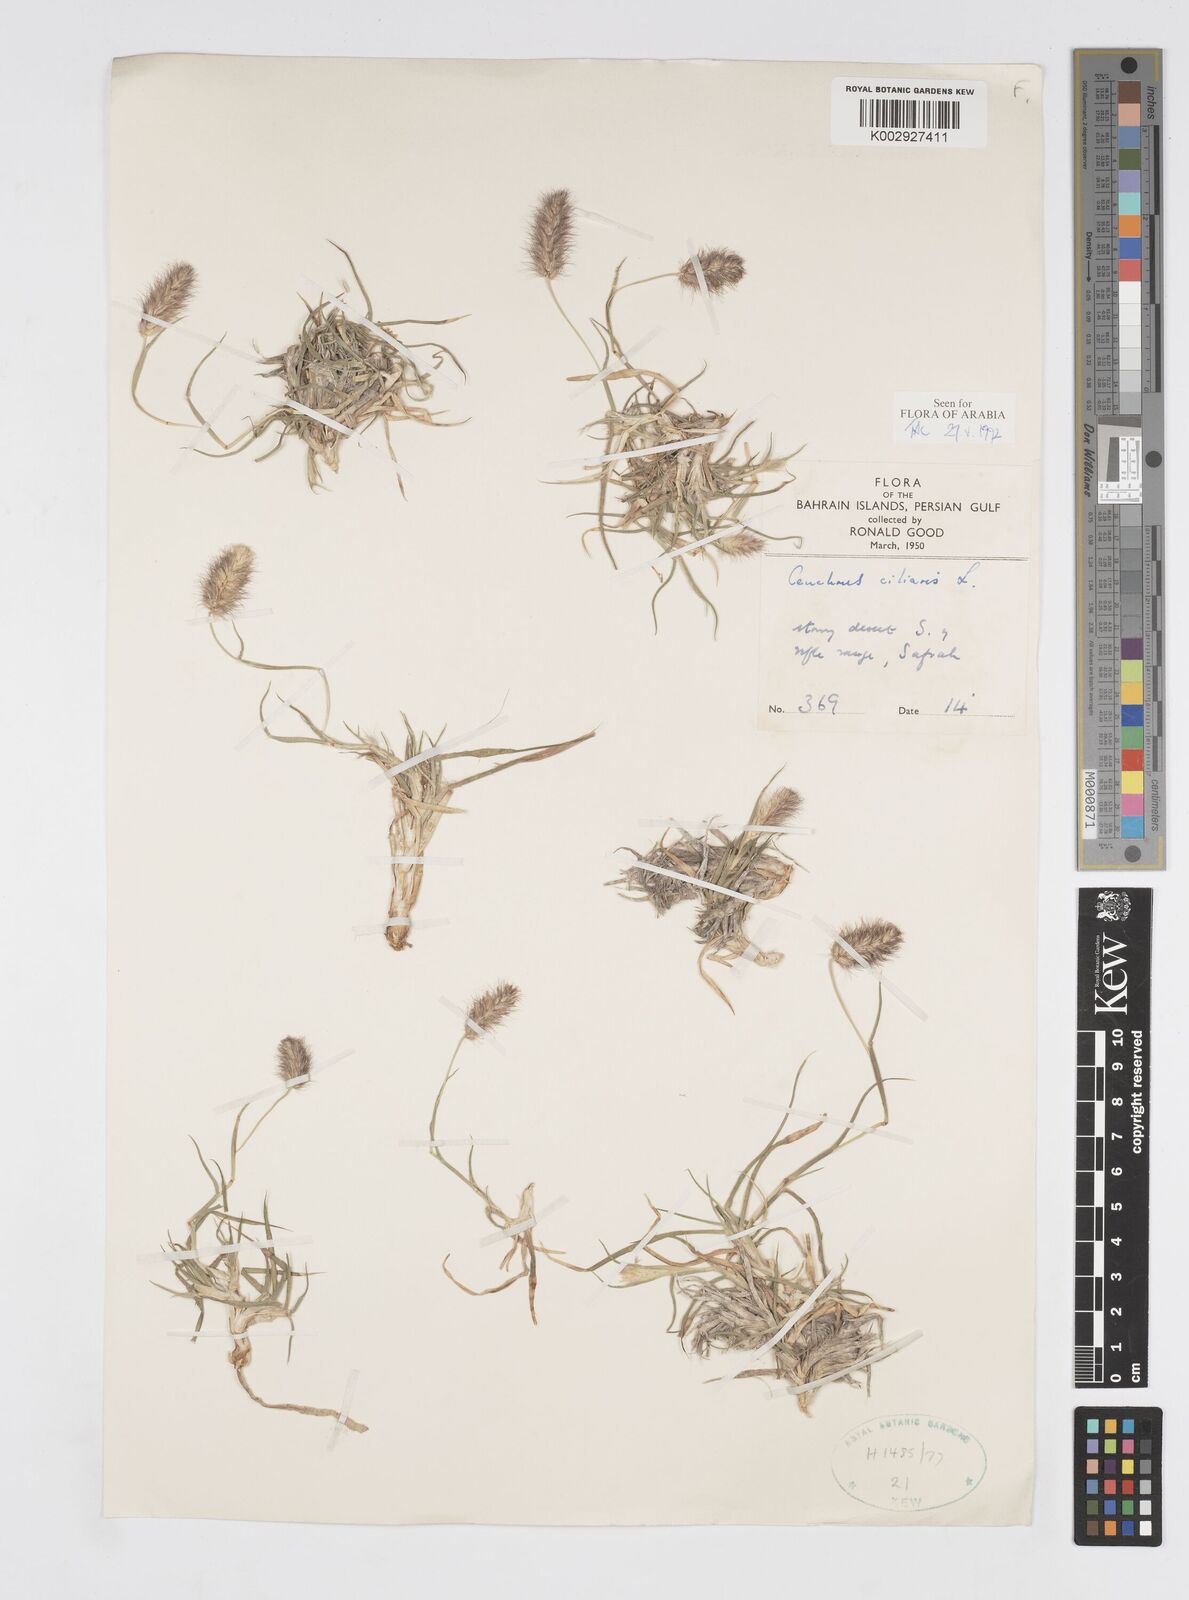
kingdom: Plantae
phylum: Tracheophyta
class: Liliopsida
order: Poales
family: Poaceae
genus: Cenchrus
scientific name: Cenchrus ciliaris
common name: Buffelgrass
